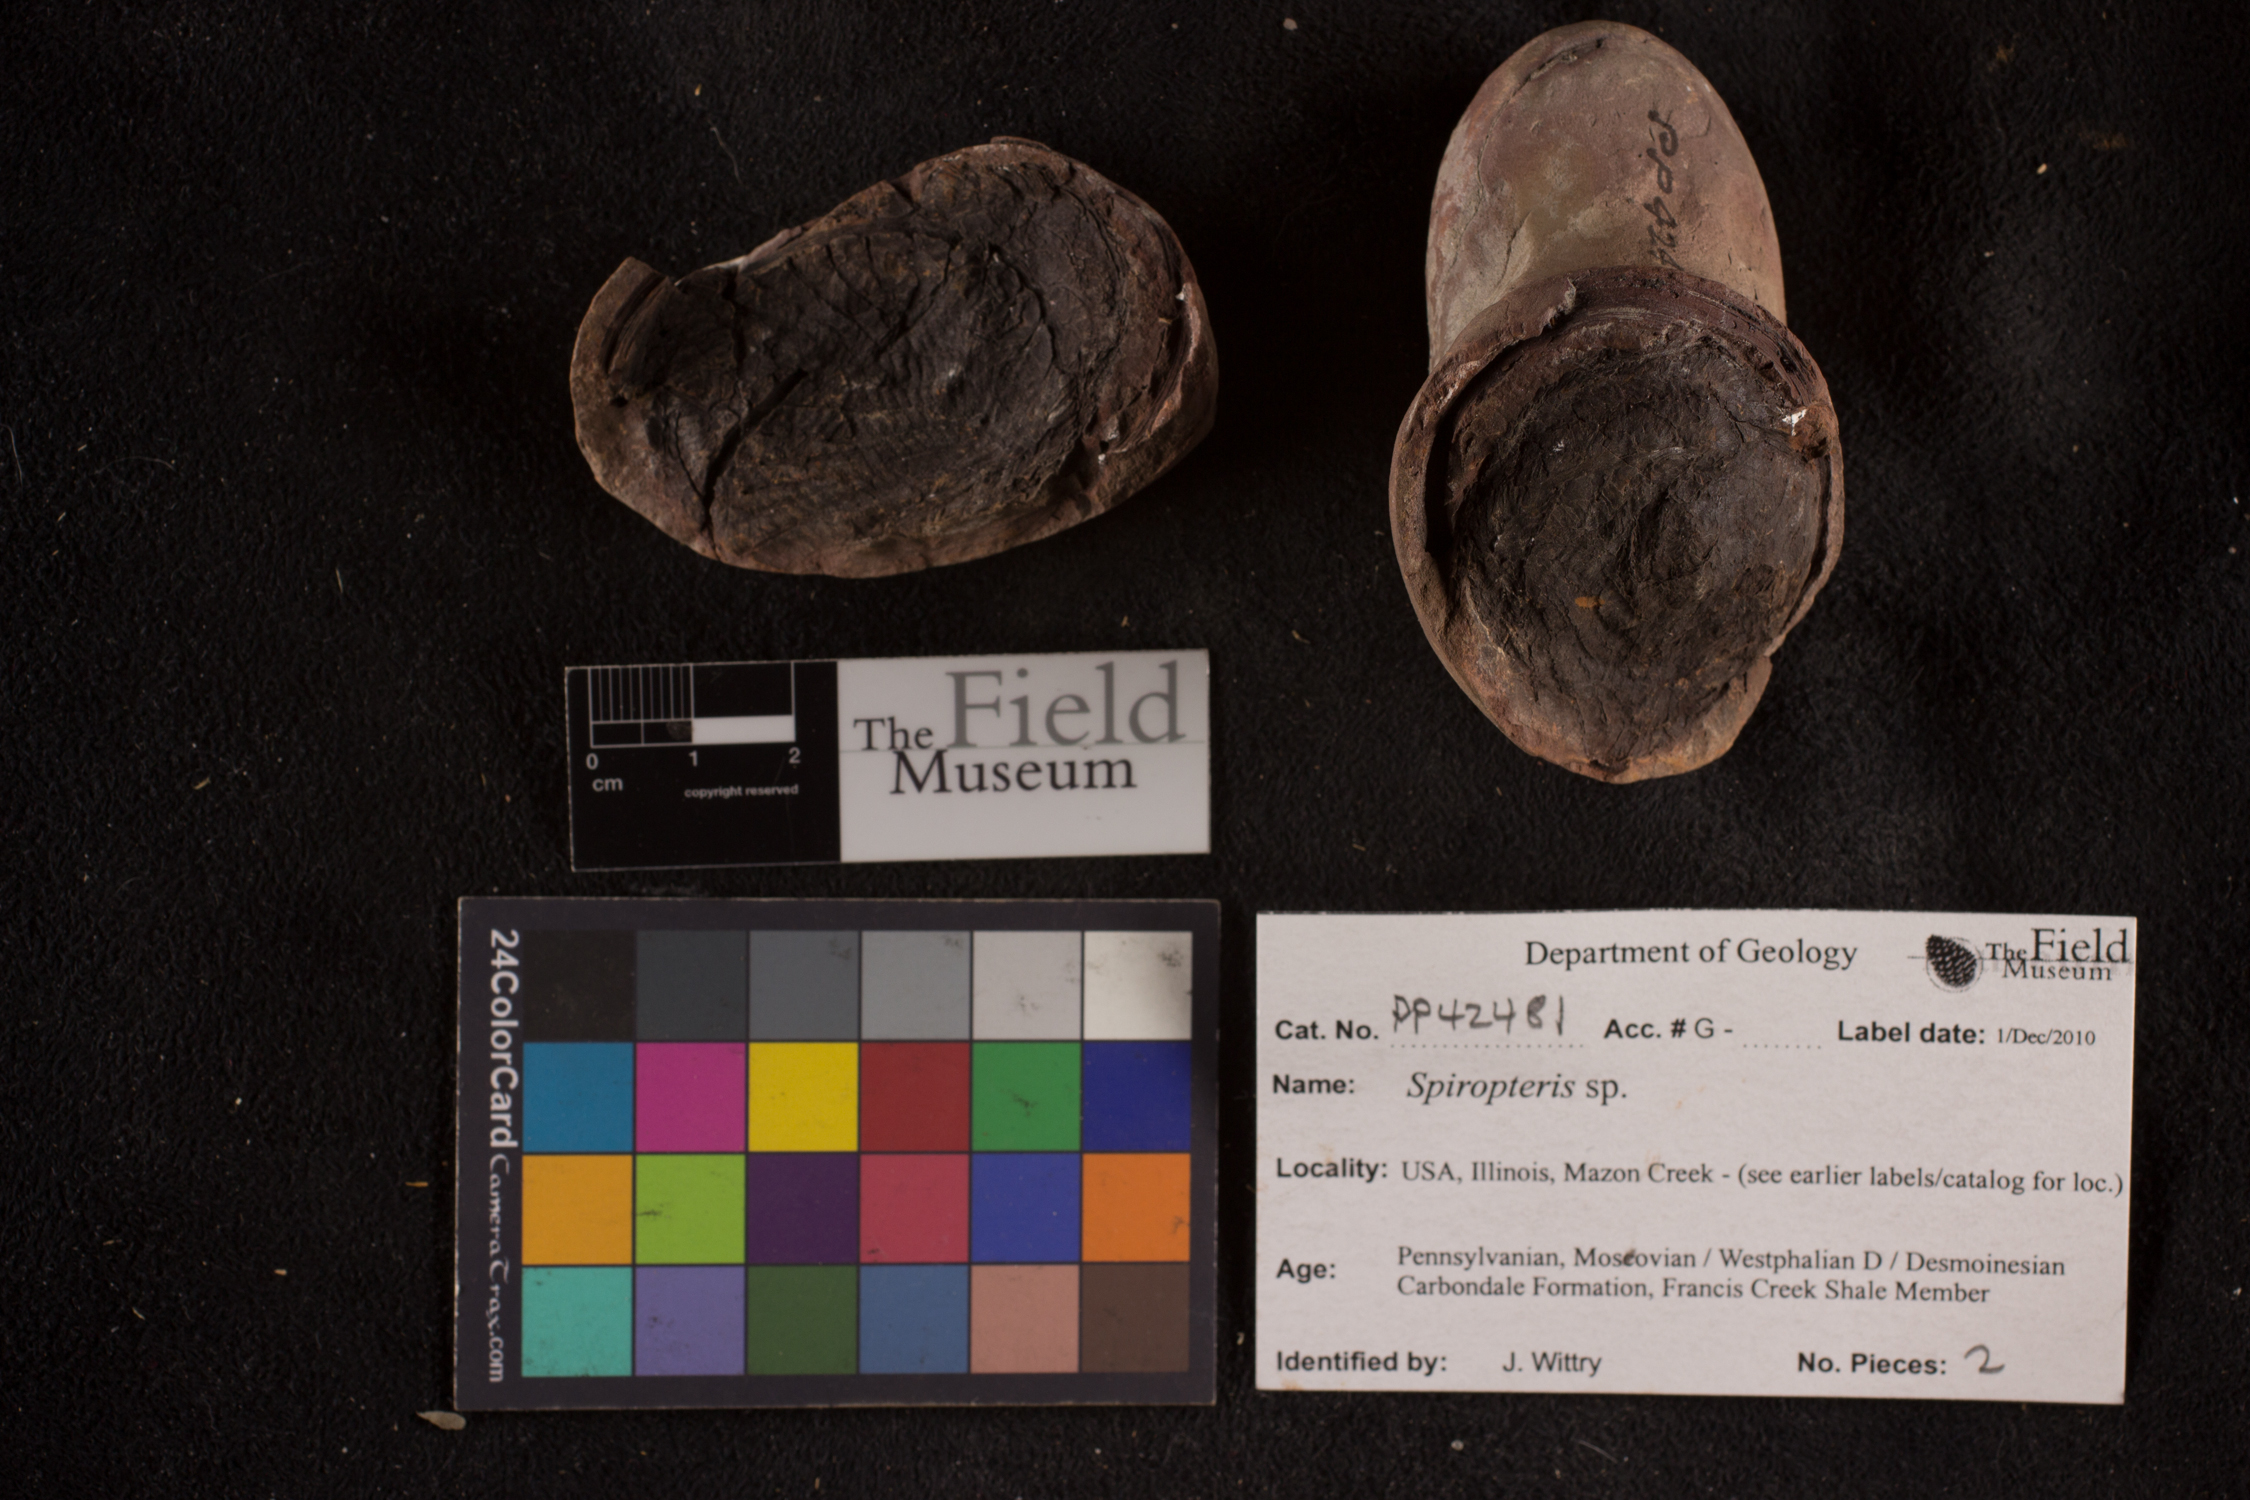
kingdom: Plantae
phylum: Tracheophyta
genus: Spiropteris
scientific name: Spiropteris
